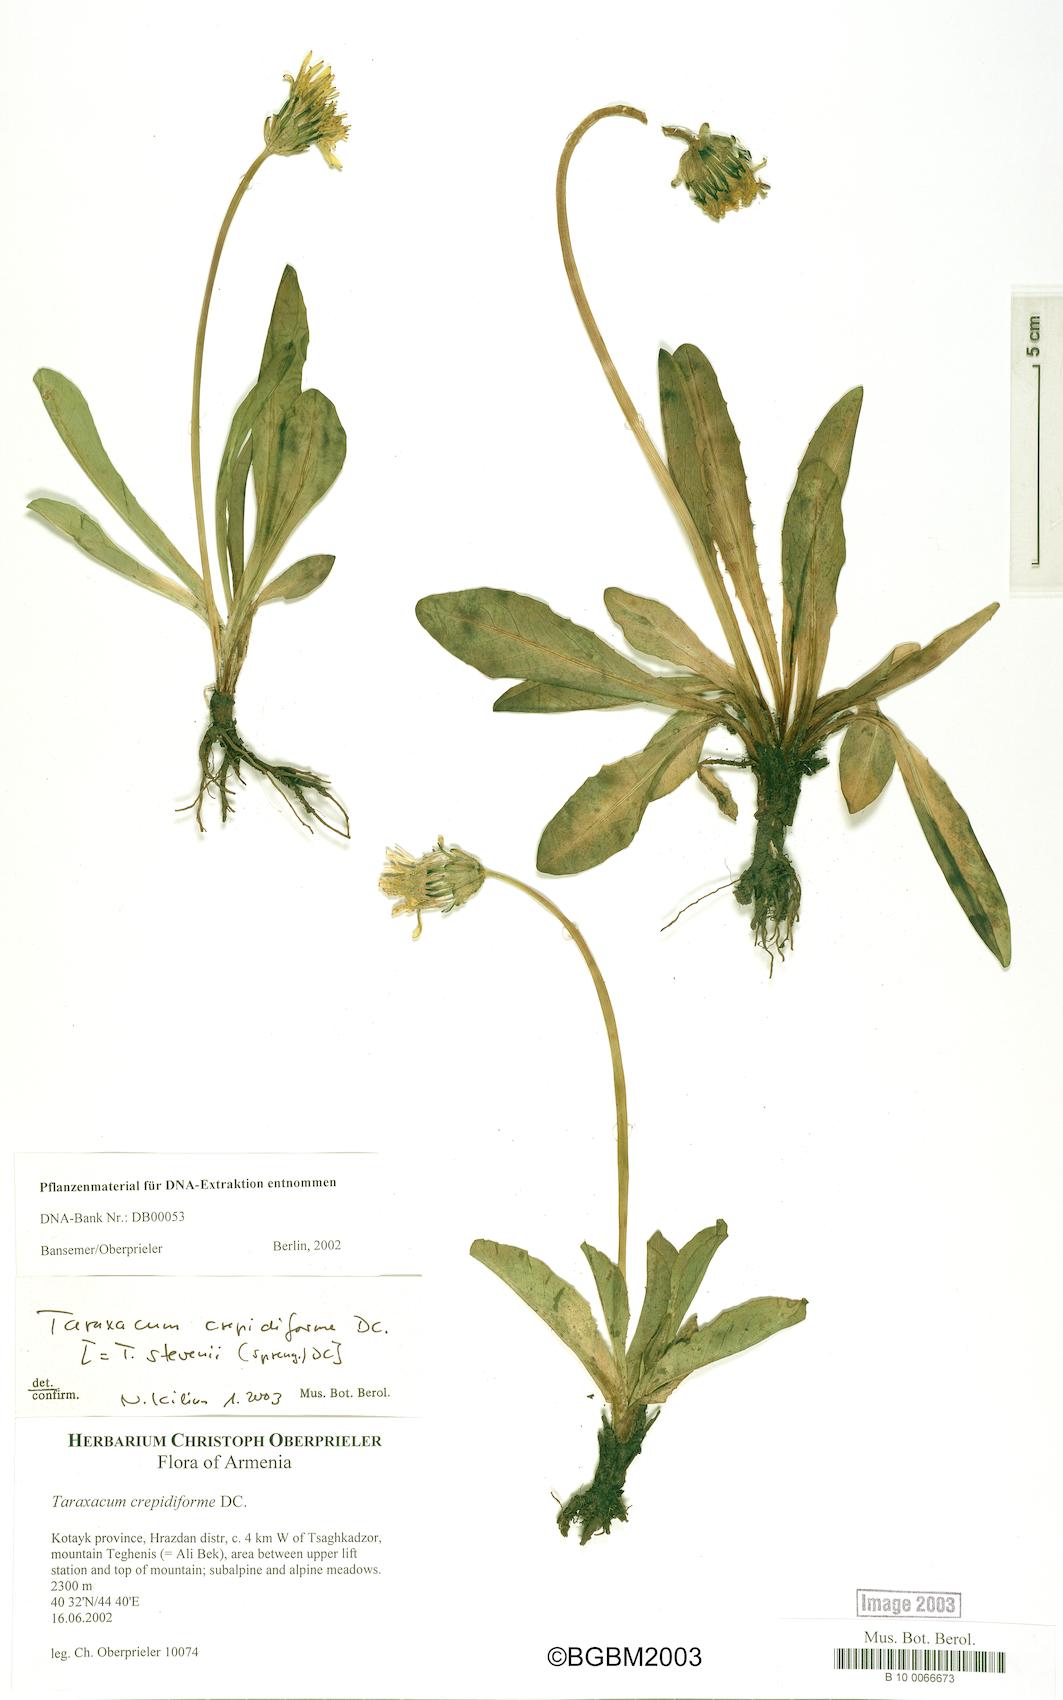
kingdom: Plantae
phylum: Tracheophyta
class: Magnoliopsida
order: Asterales
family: Asteraceae
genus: Taraxacum
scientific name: Taraxacum stevenii
